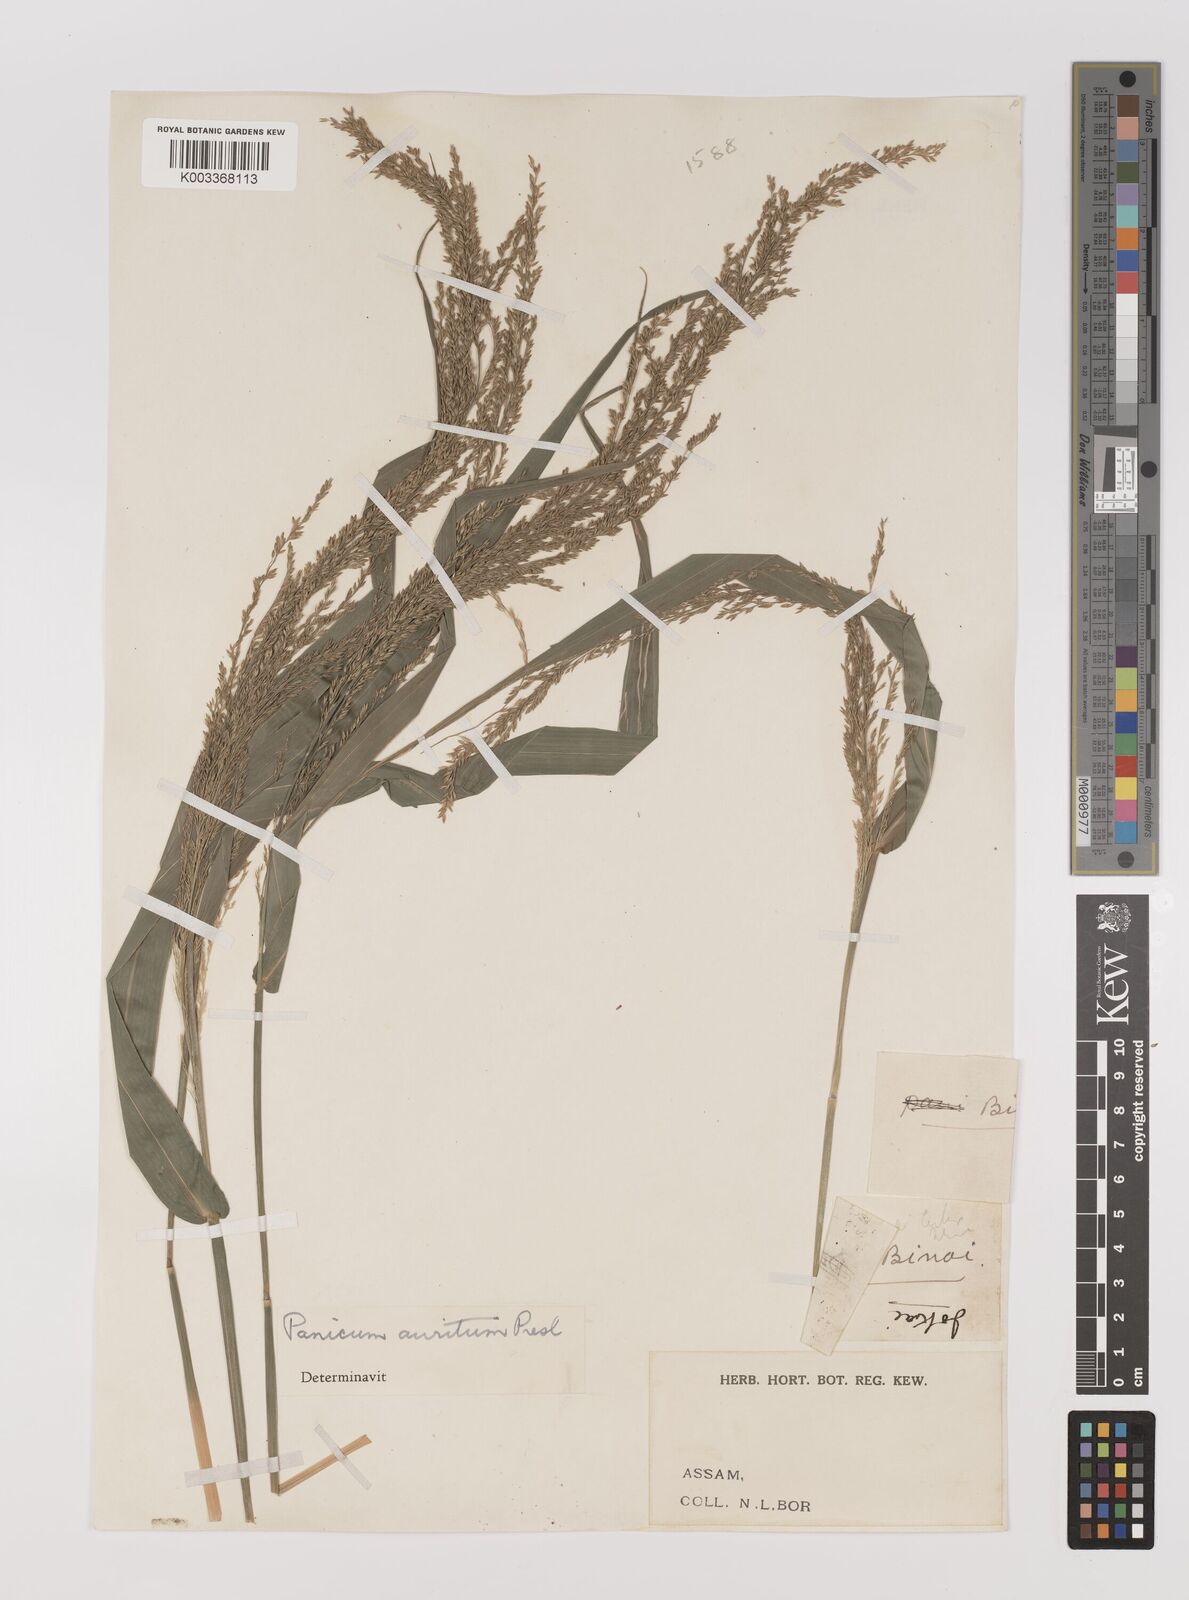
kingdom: Plantae
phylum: Tracheophyta
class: Liliopsida
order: Poales
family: Poaceae
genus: Hymenachne
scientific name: Hymenachne aurita
